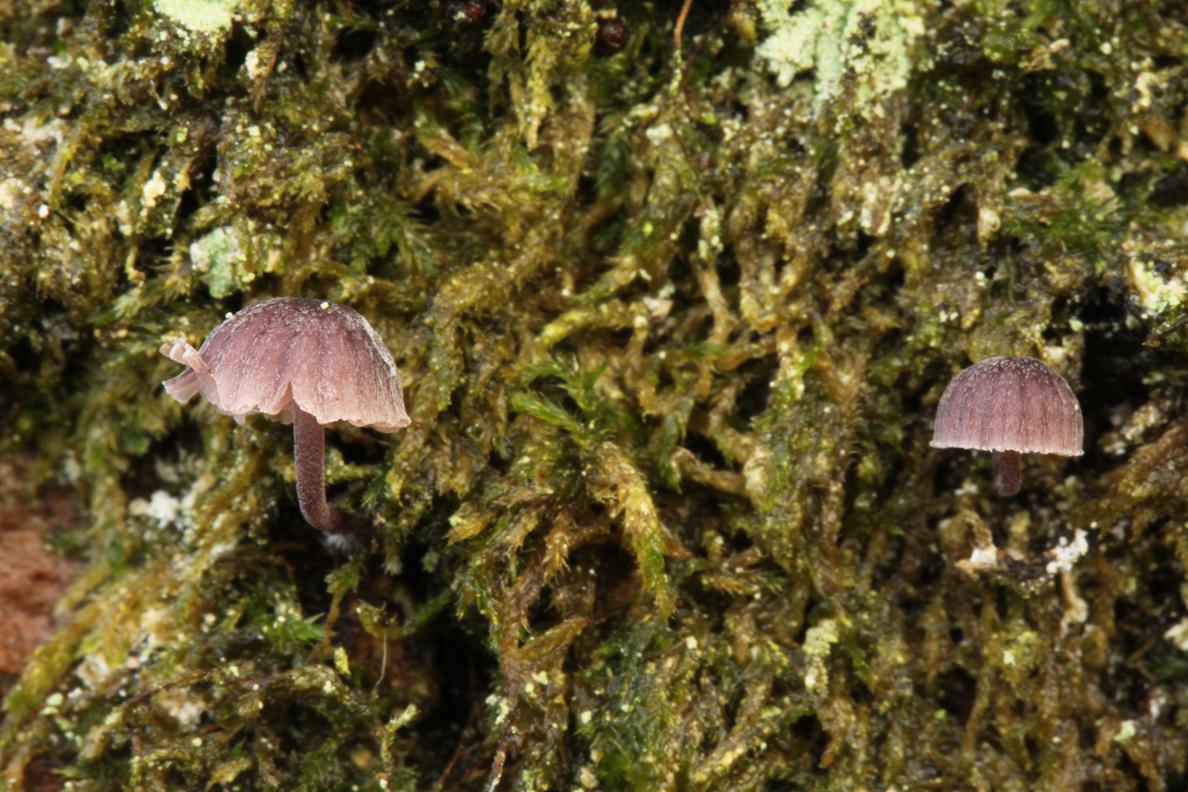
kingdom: Fungi
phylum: Basidiomycota
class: Agaricomycetes
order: Agaricales
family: Mycenaceae
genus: Mycena
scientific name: Mycena meliigena
